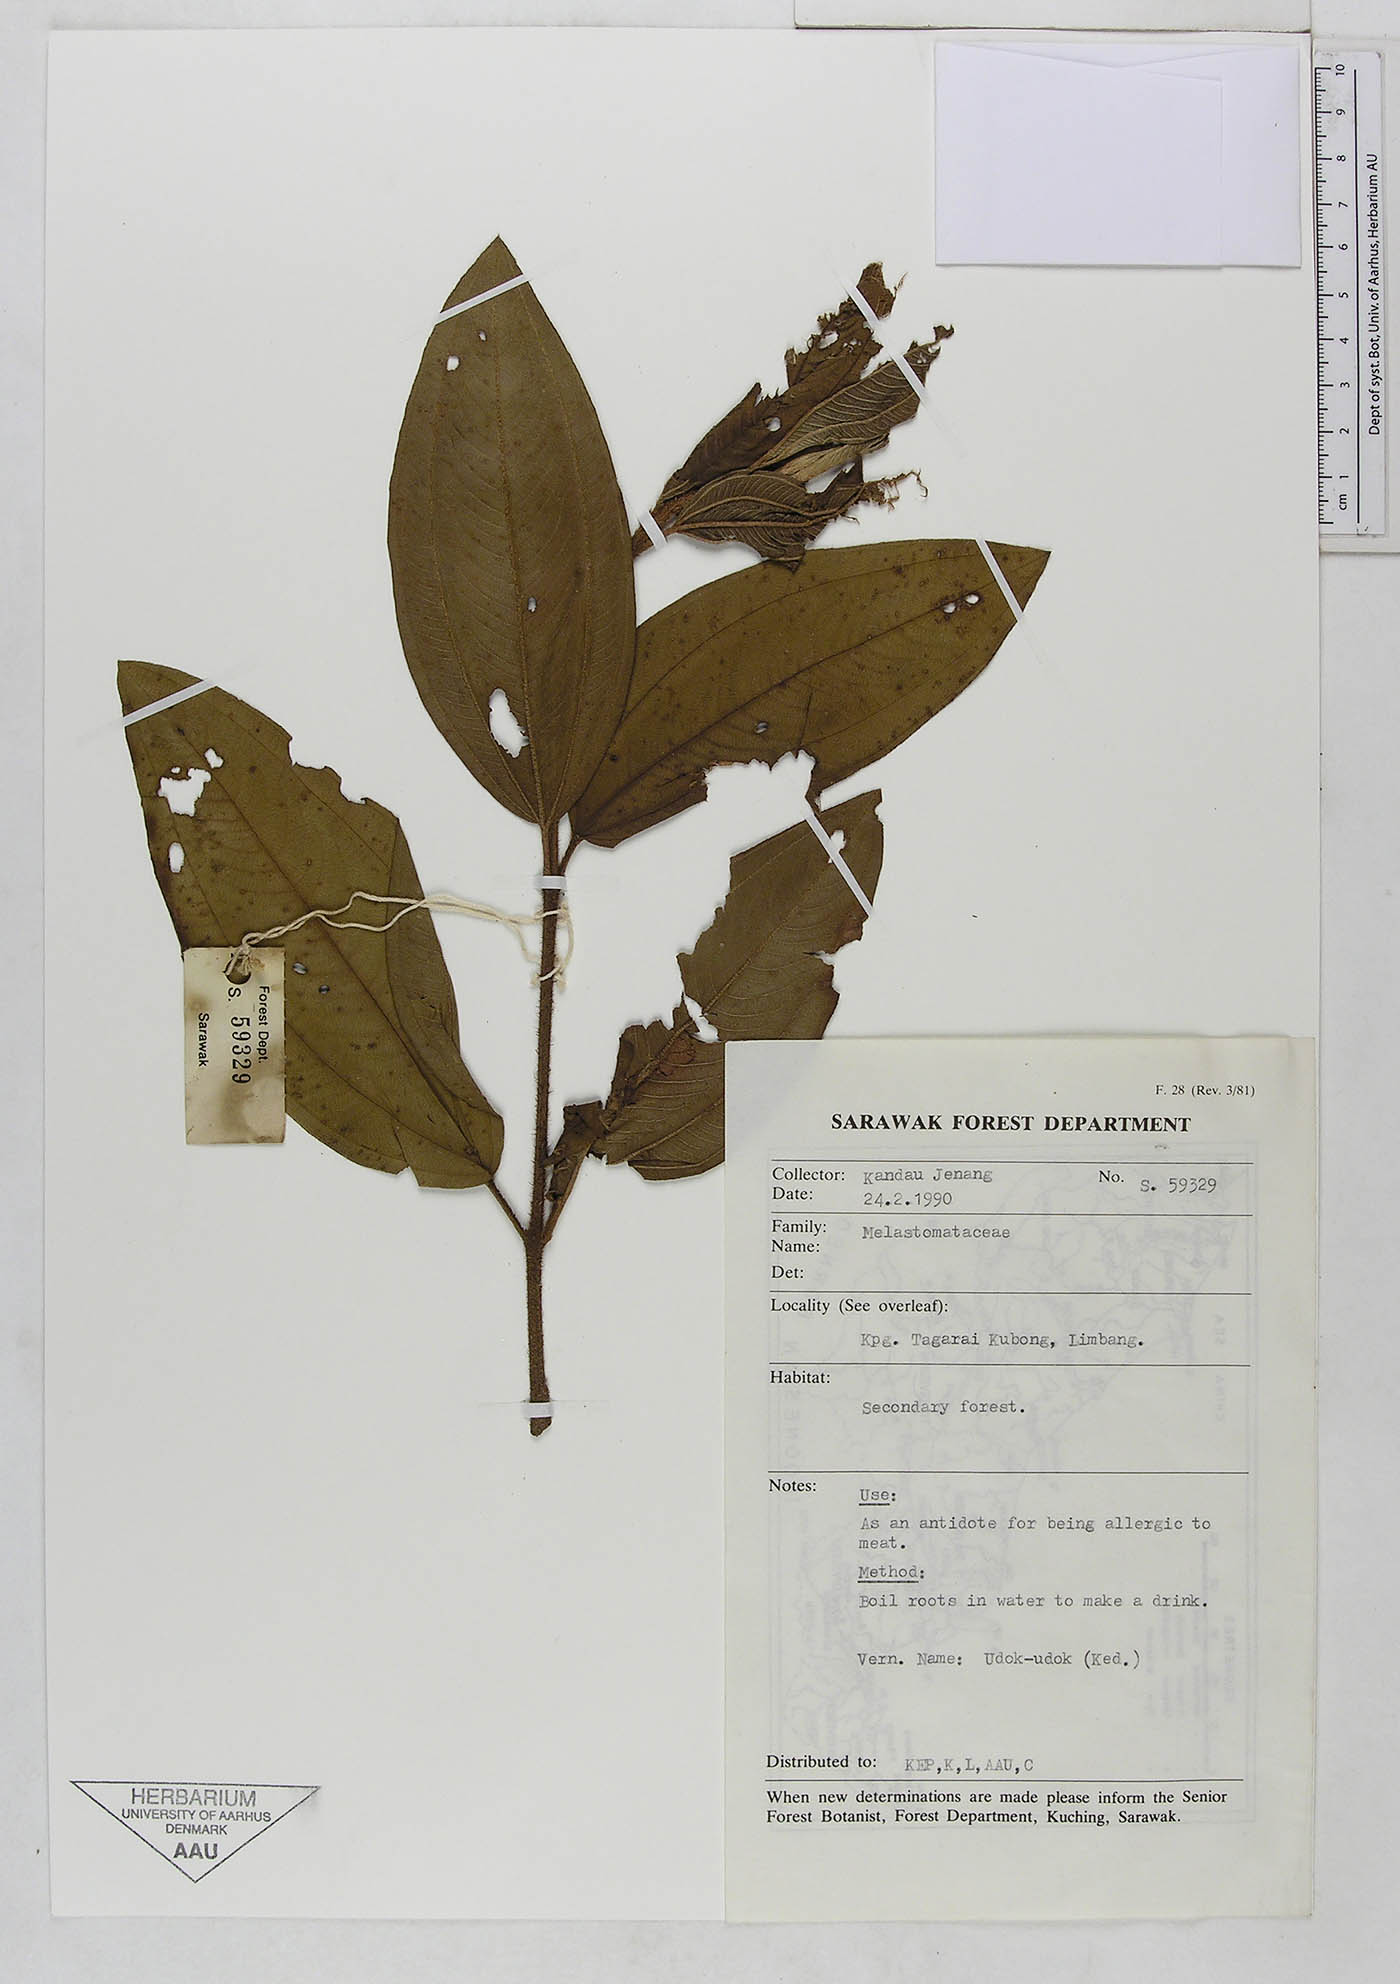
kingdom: Plantae
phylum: Tracheophyta
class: Magnoliopsida
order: Myrtales
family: Melastomataceae
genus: Melastoma
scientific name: Melastoma
